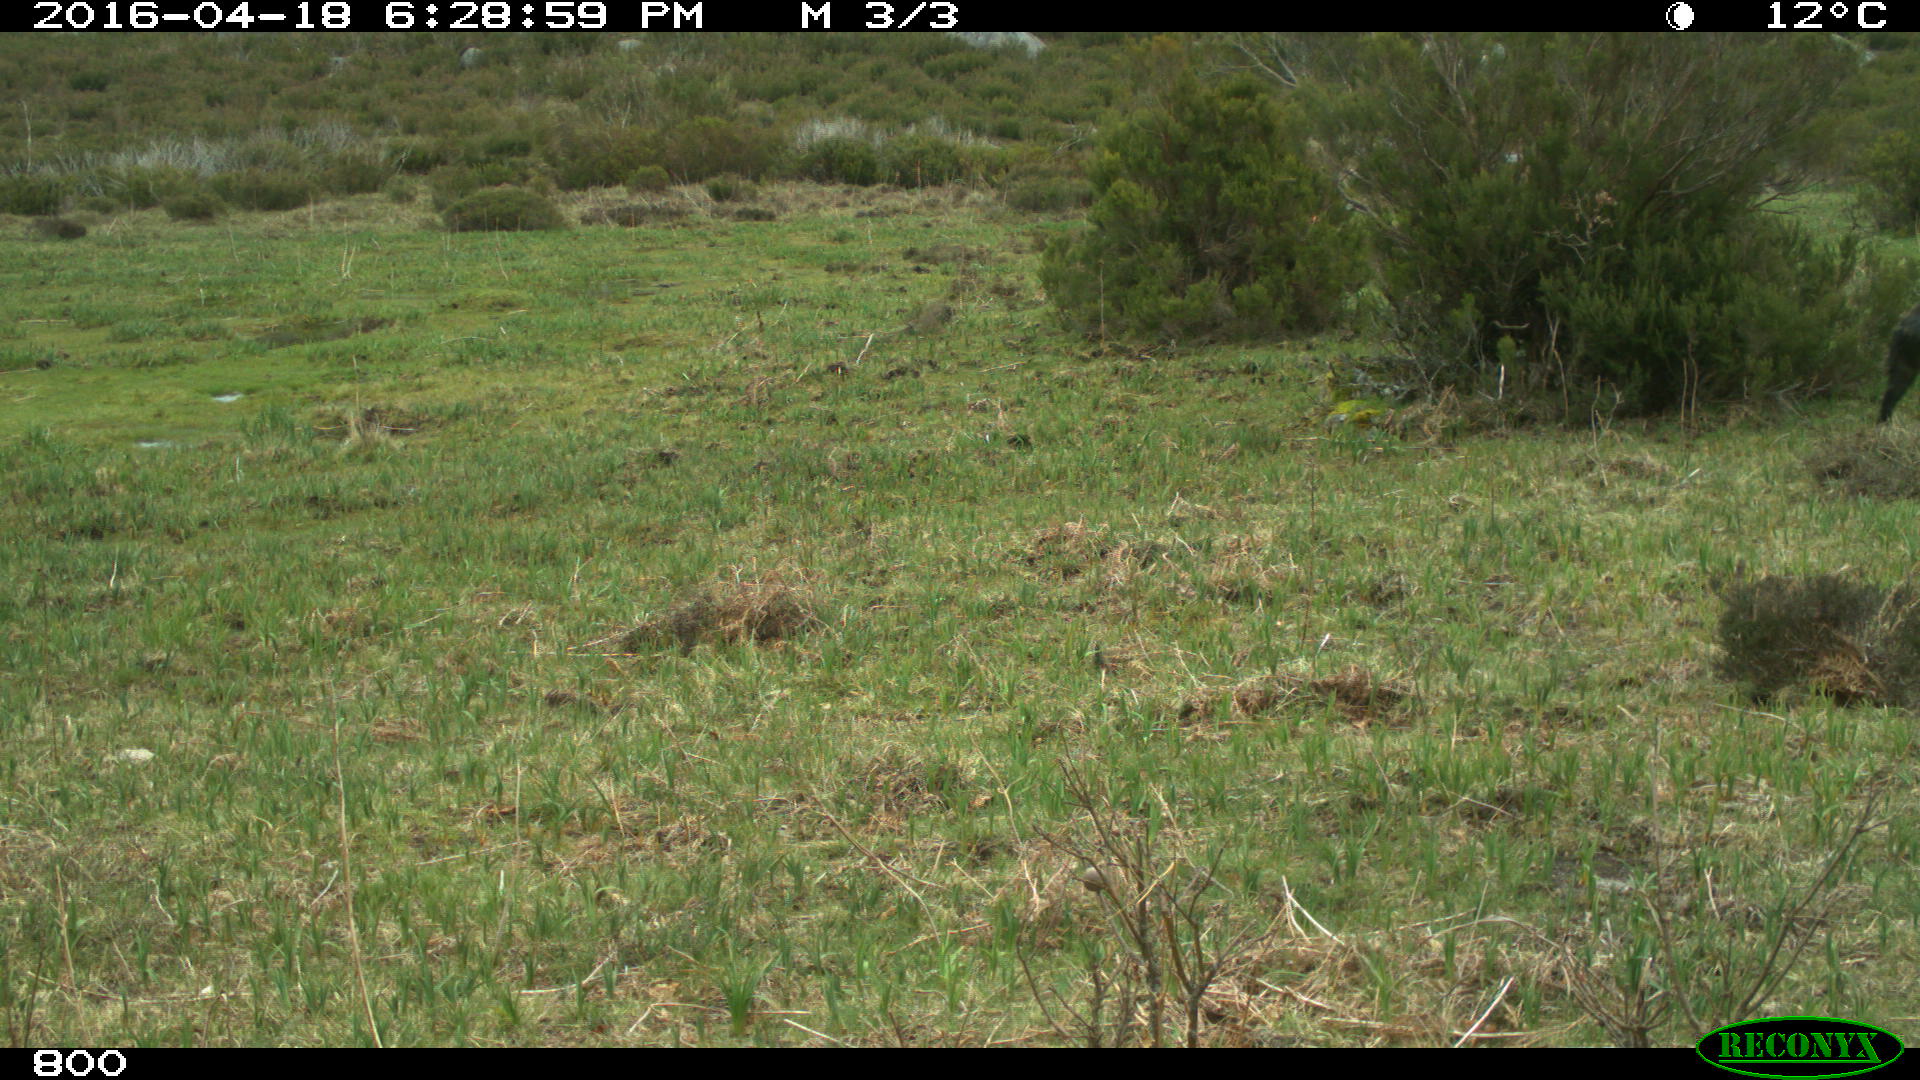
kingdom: Animalia
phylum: Chordata
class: Mammalia
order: Artiodactyla
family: Suidae
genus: Sus
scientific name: Sus scrofa
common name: Wild boar
